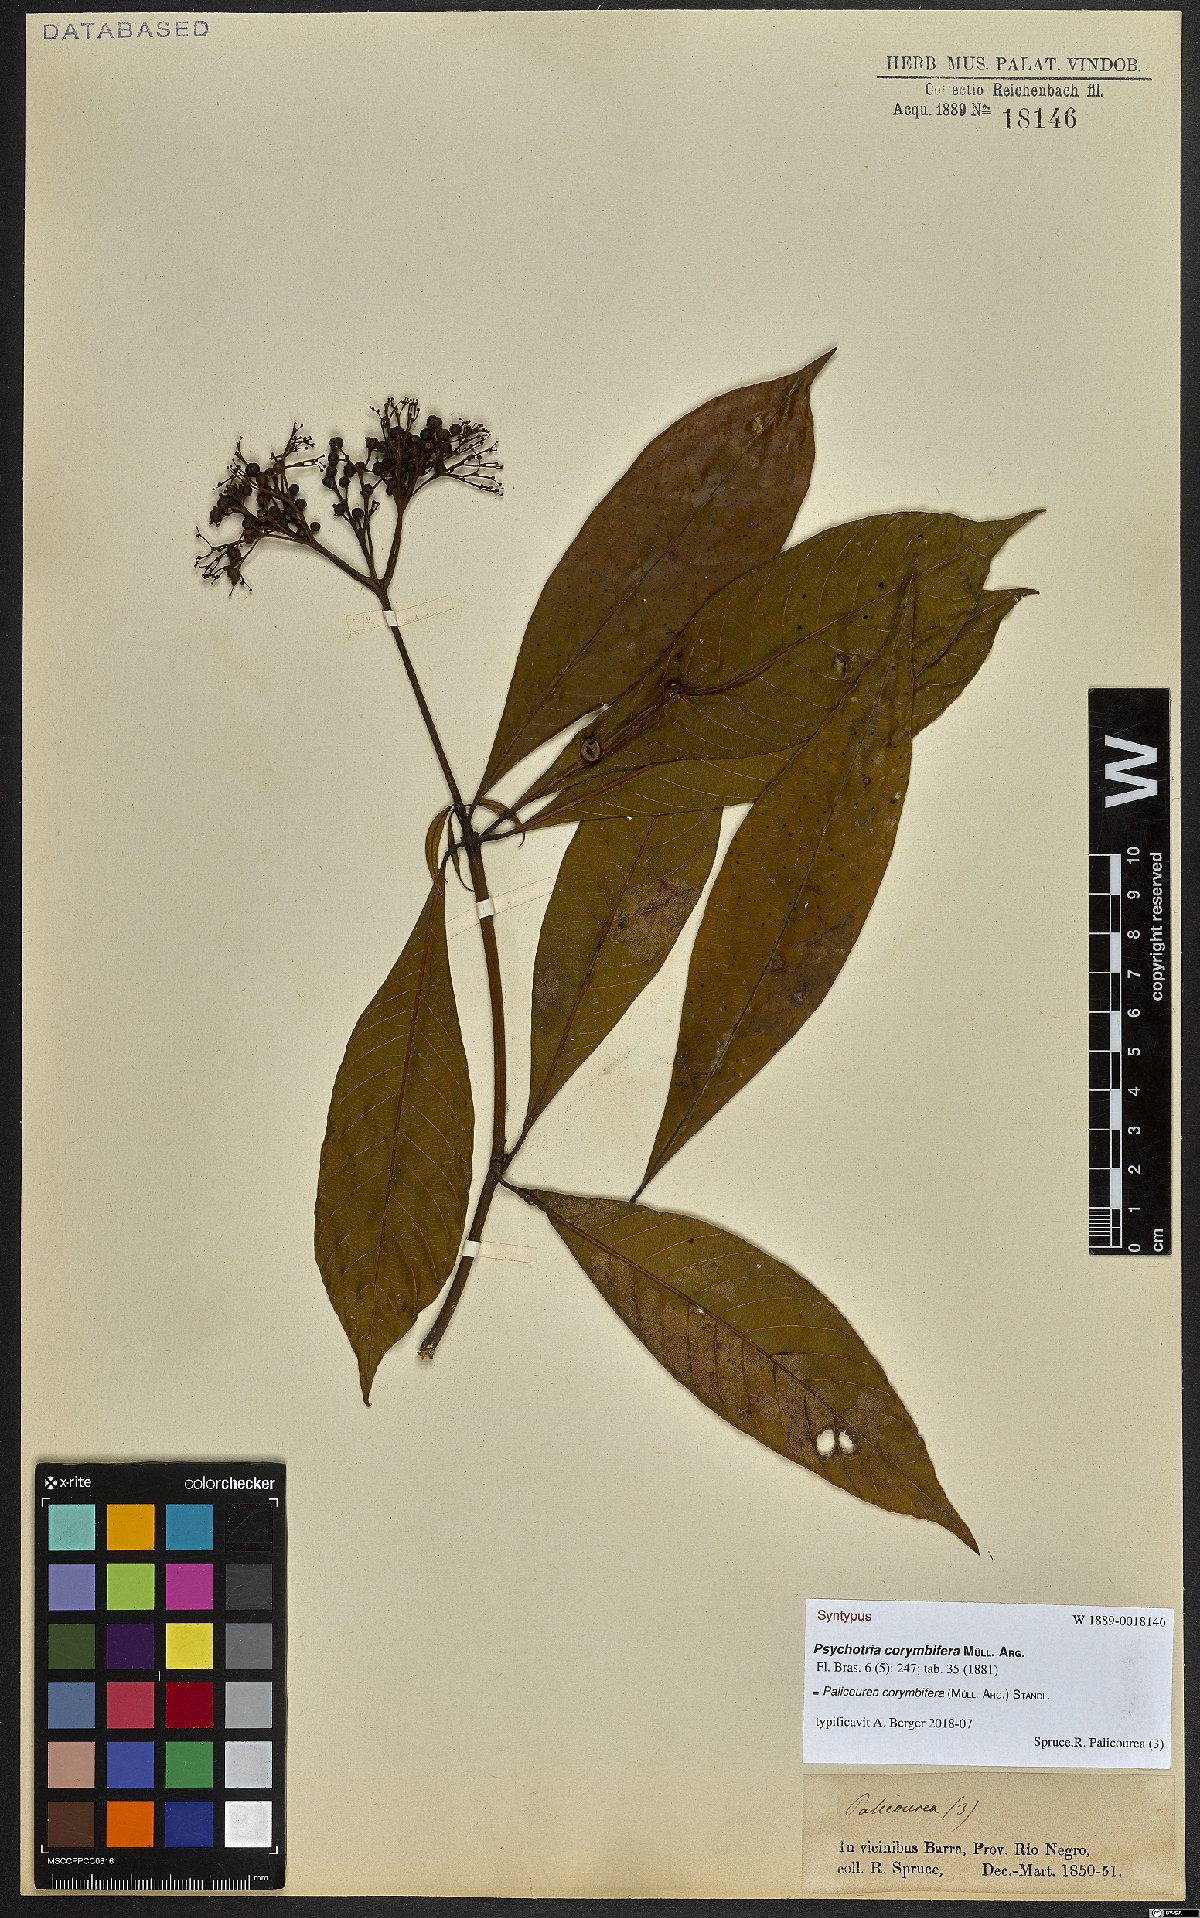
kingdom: Plantae
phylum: Tracheophyta
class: Magnoliopsida
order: Gentianales
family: Rubiaceae
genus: Palicourea
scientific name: Palicourea corymbifera
